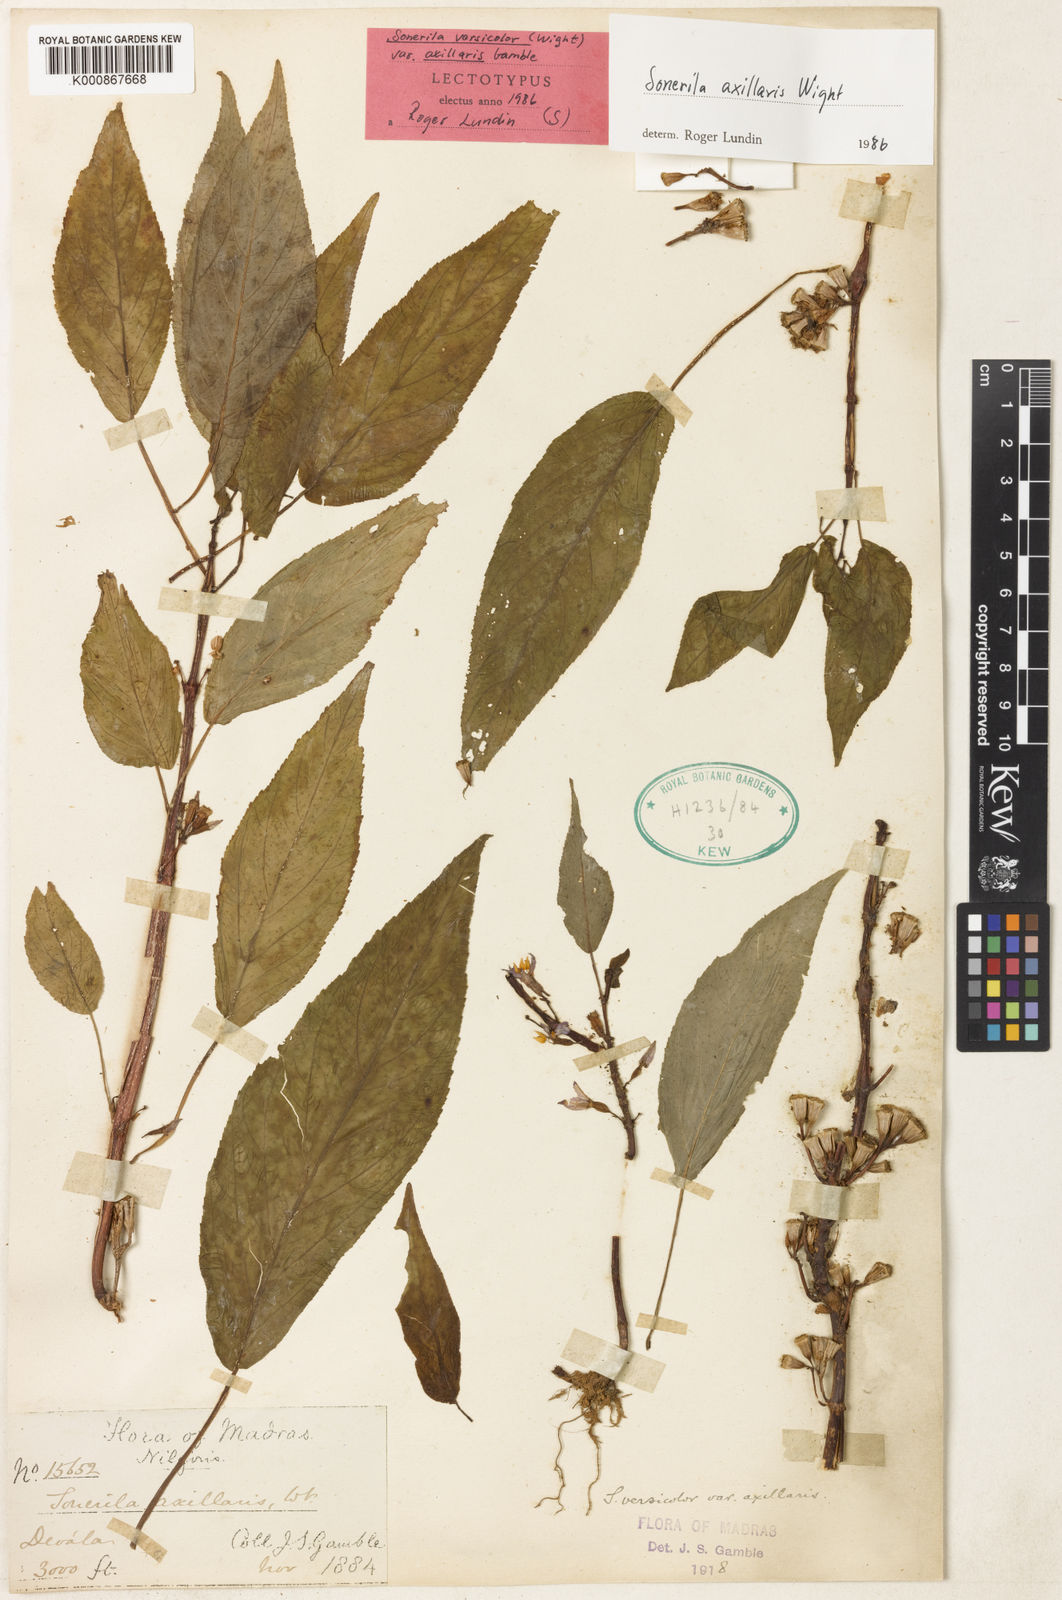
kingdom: Plantae
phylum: Tracheophyta
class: Magnoliopsida
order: Myrtales
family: Melastomataceae
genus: Sonerila
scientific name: Sonerila versicolor
